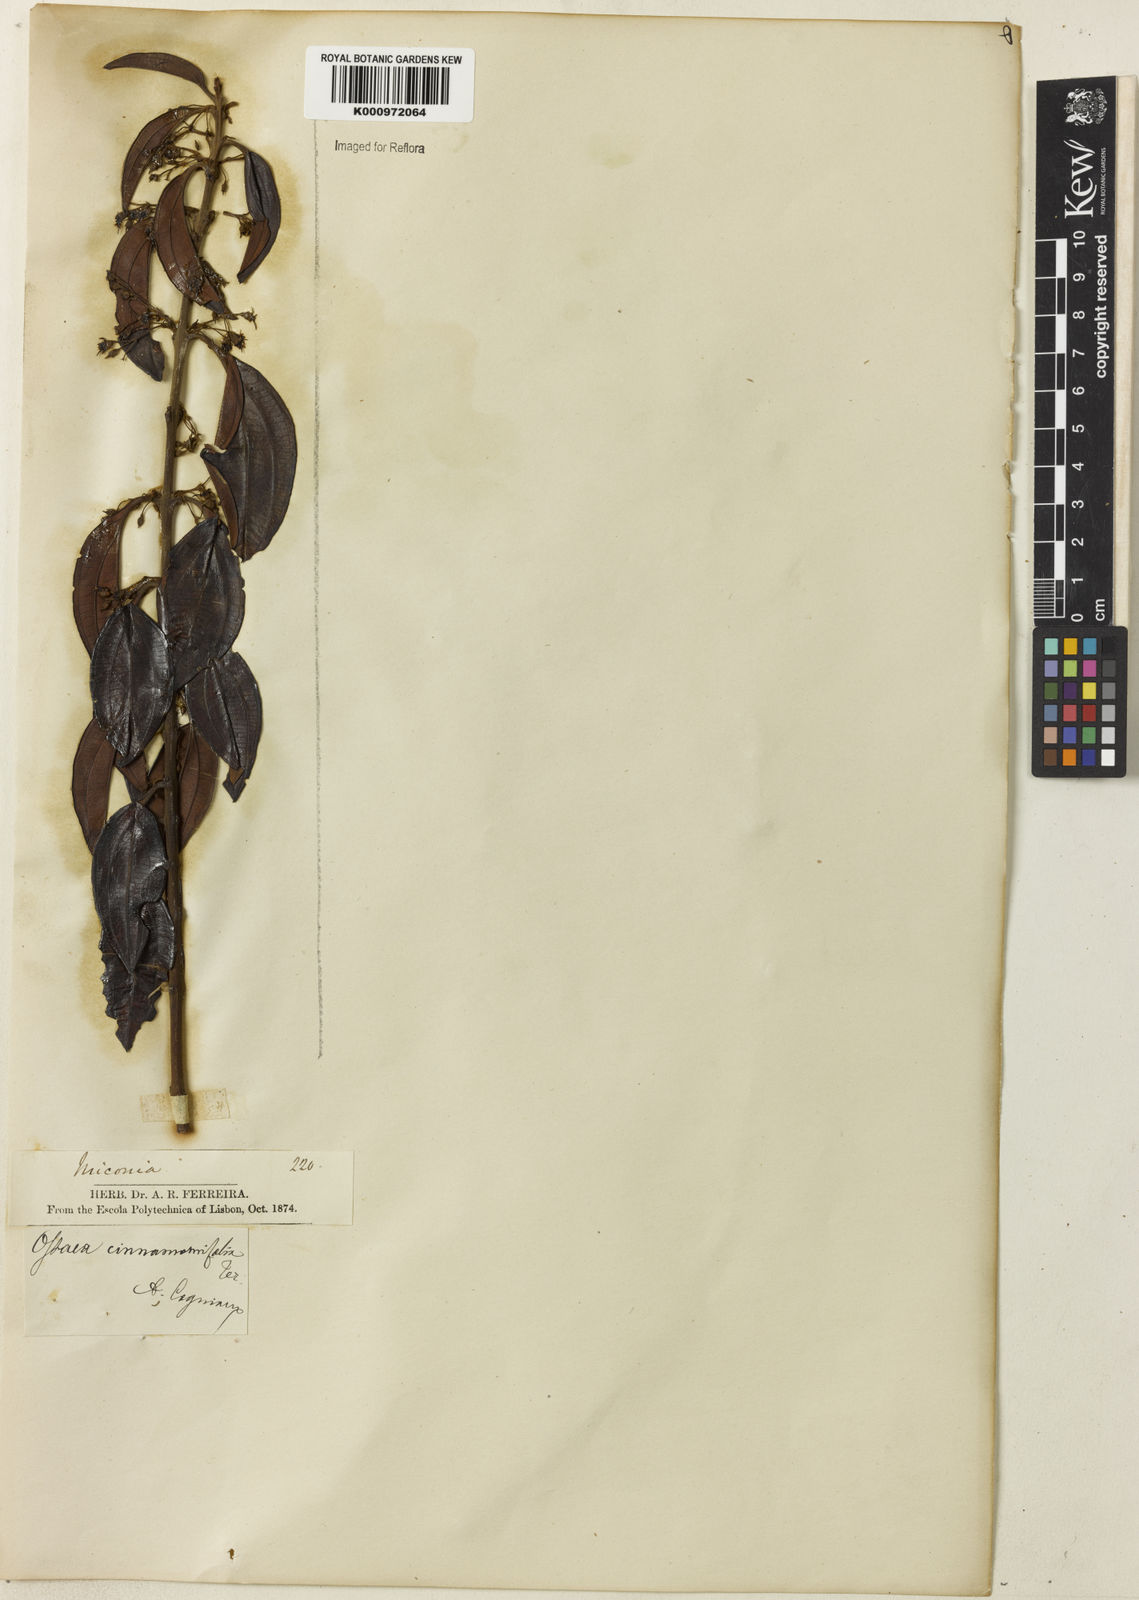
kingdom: Plantae
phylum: Tracheophyta
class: Magnoliopsida
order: Myrtales
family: Melastomataceae
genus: Miconia
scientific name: Miconia leacinnamomifolia
